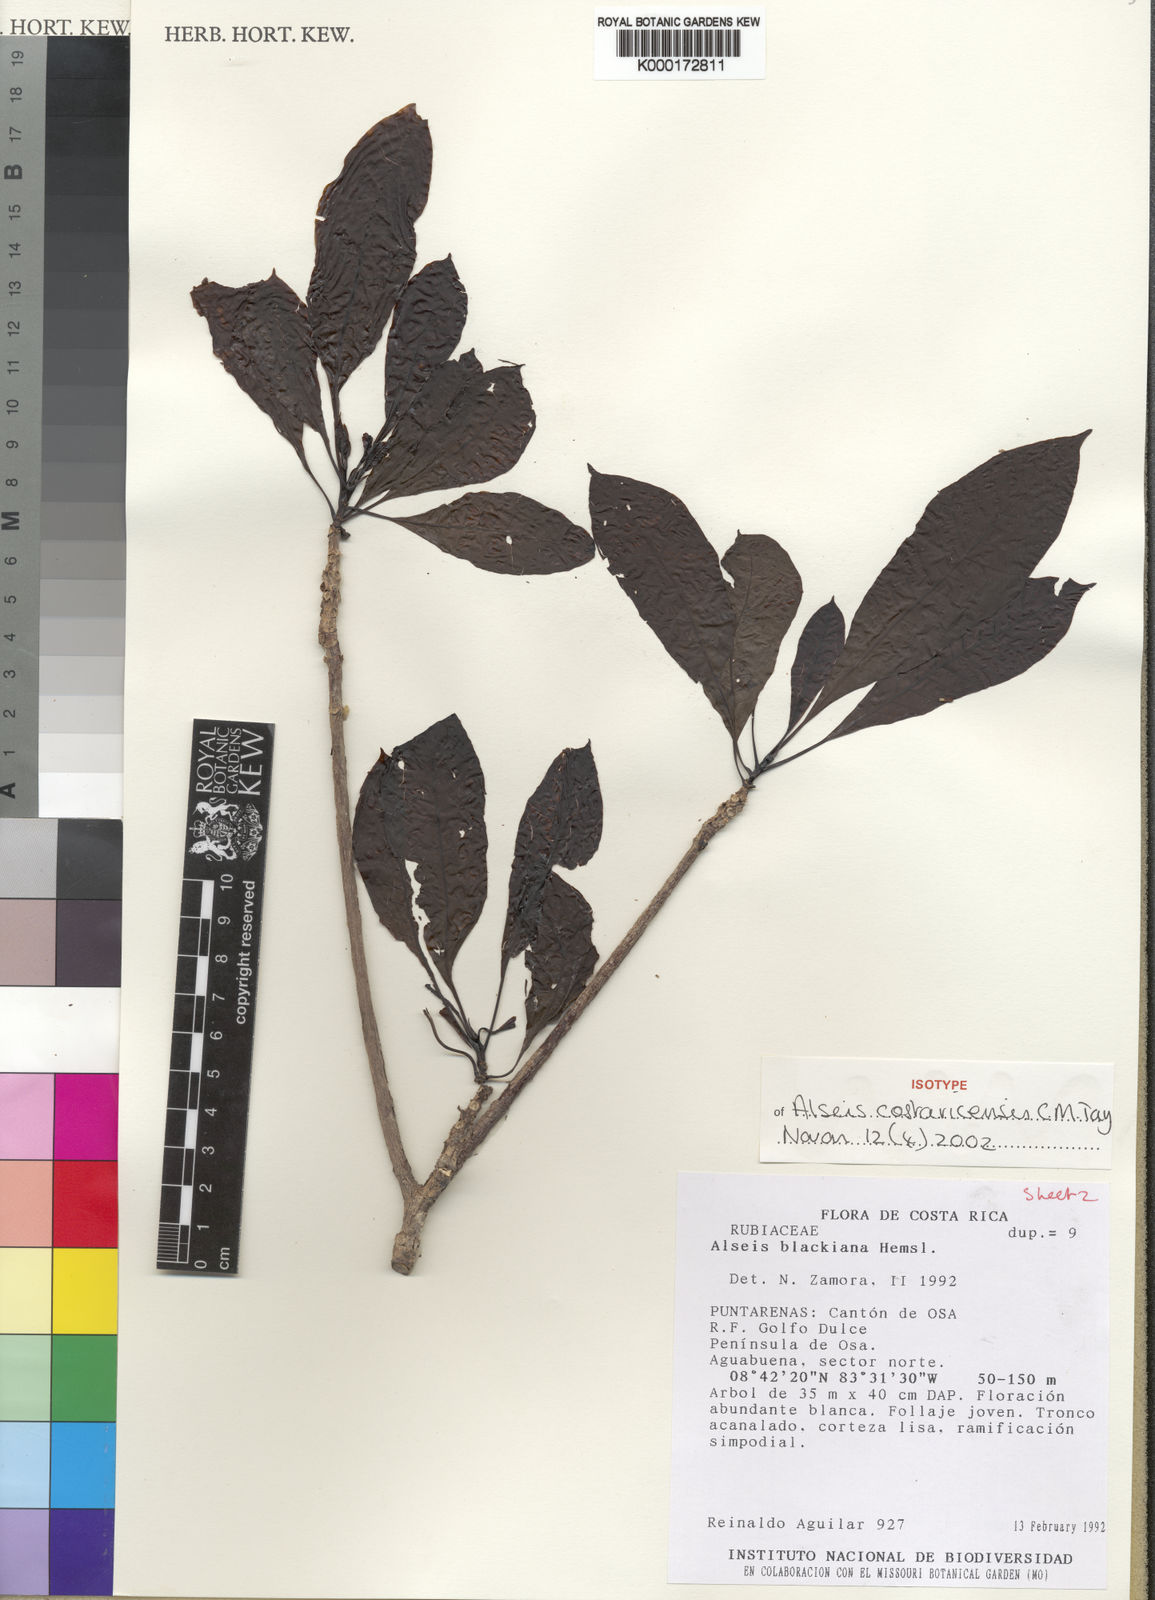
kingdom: Plantae
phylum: Tracheophyta
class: Magnoliopsida
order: Gentianales
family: Rubiaceae
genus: Alseis
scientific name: Alseis blackiana
